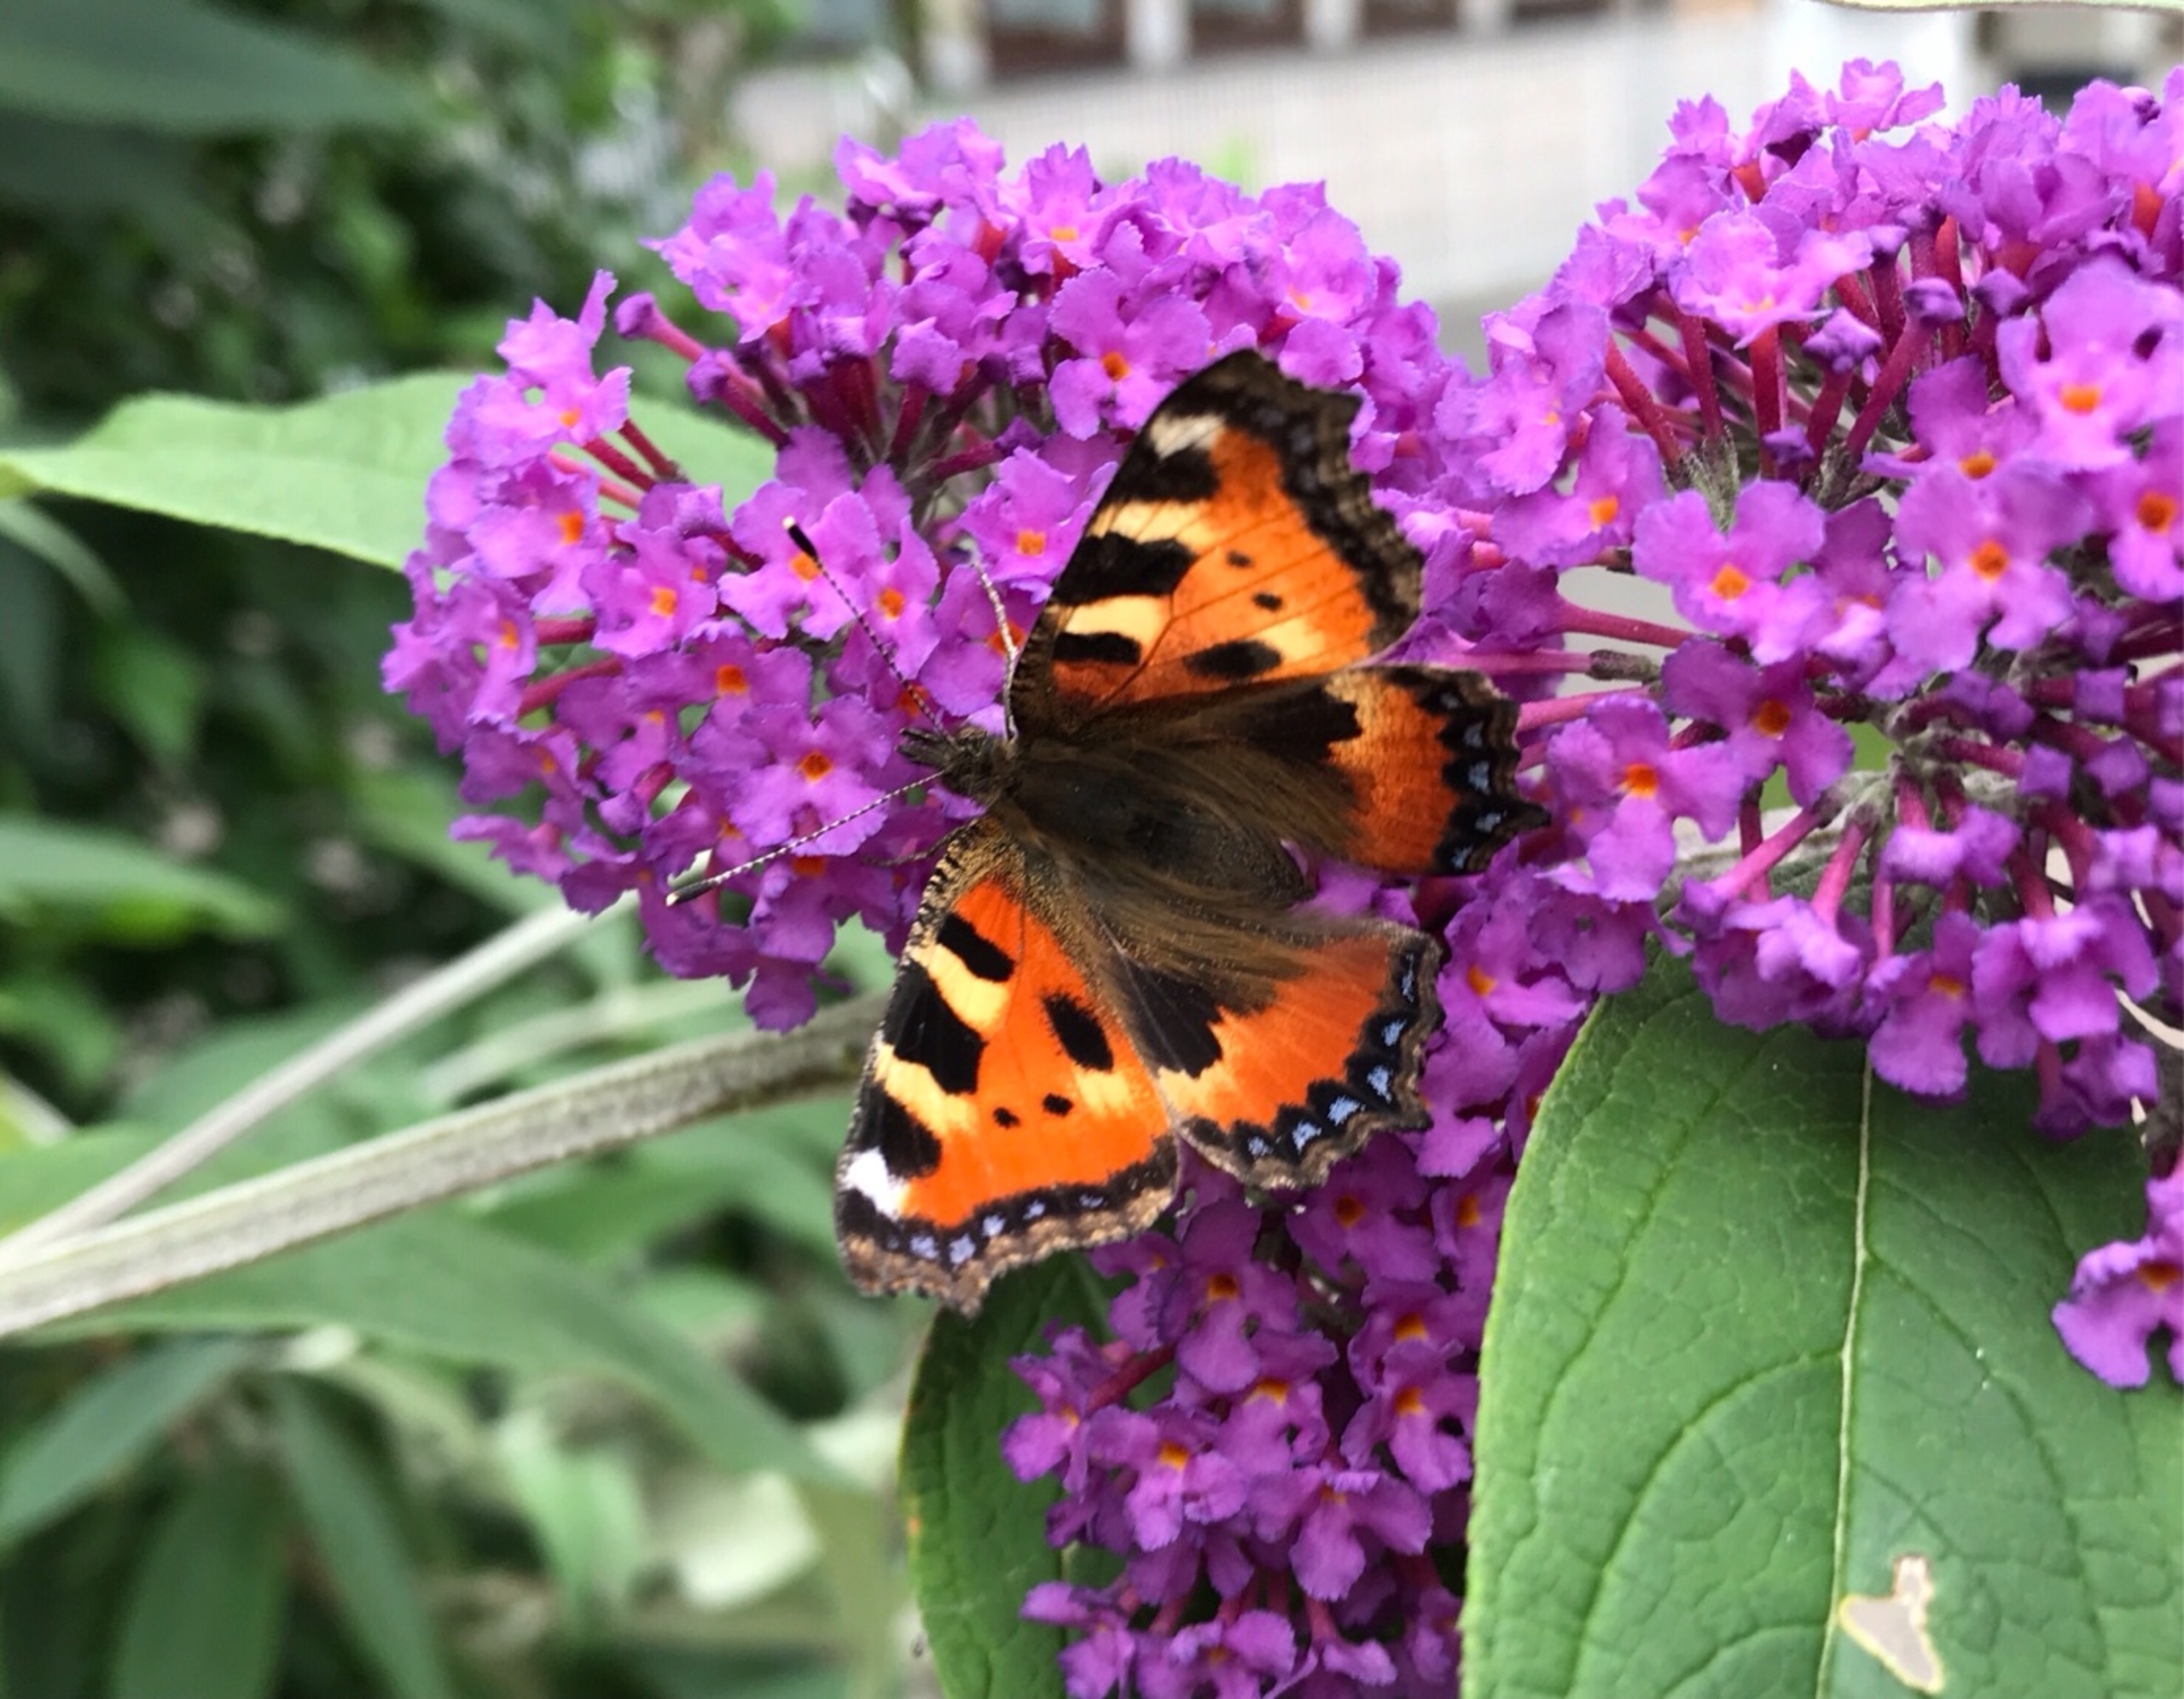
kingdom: Animalia
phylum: Arthropoda
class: Insecta
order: Lepidoptera
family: Nymphalidae
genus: Aglais
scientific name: Aglais urticae
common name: Nældens takvinge
